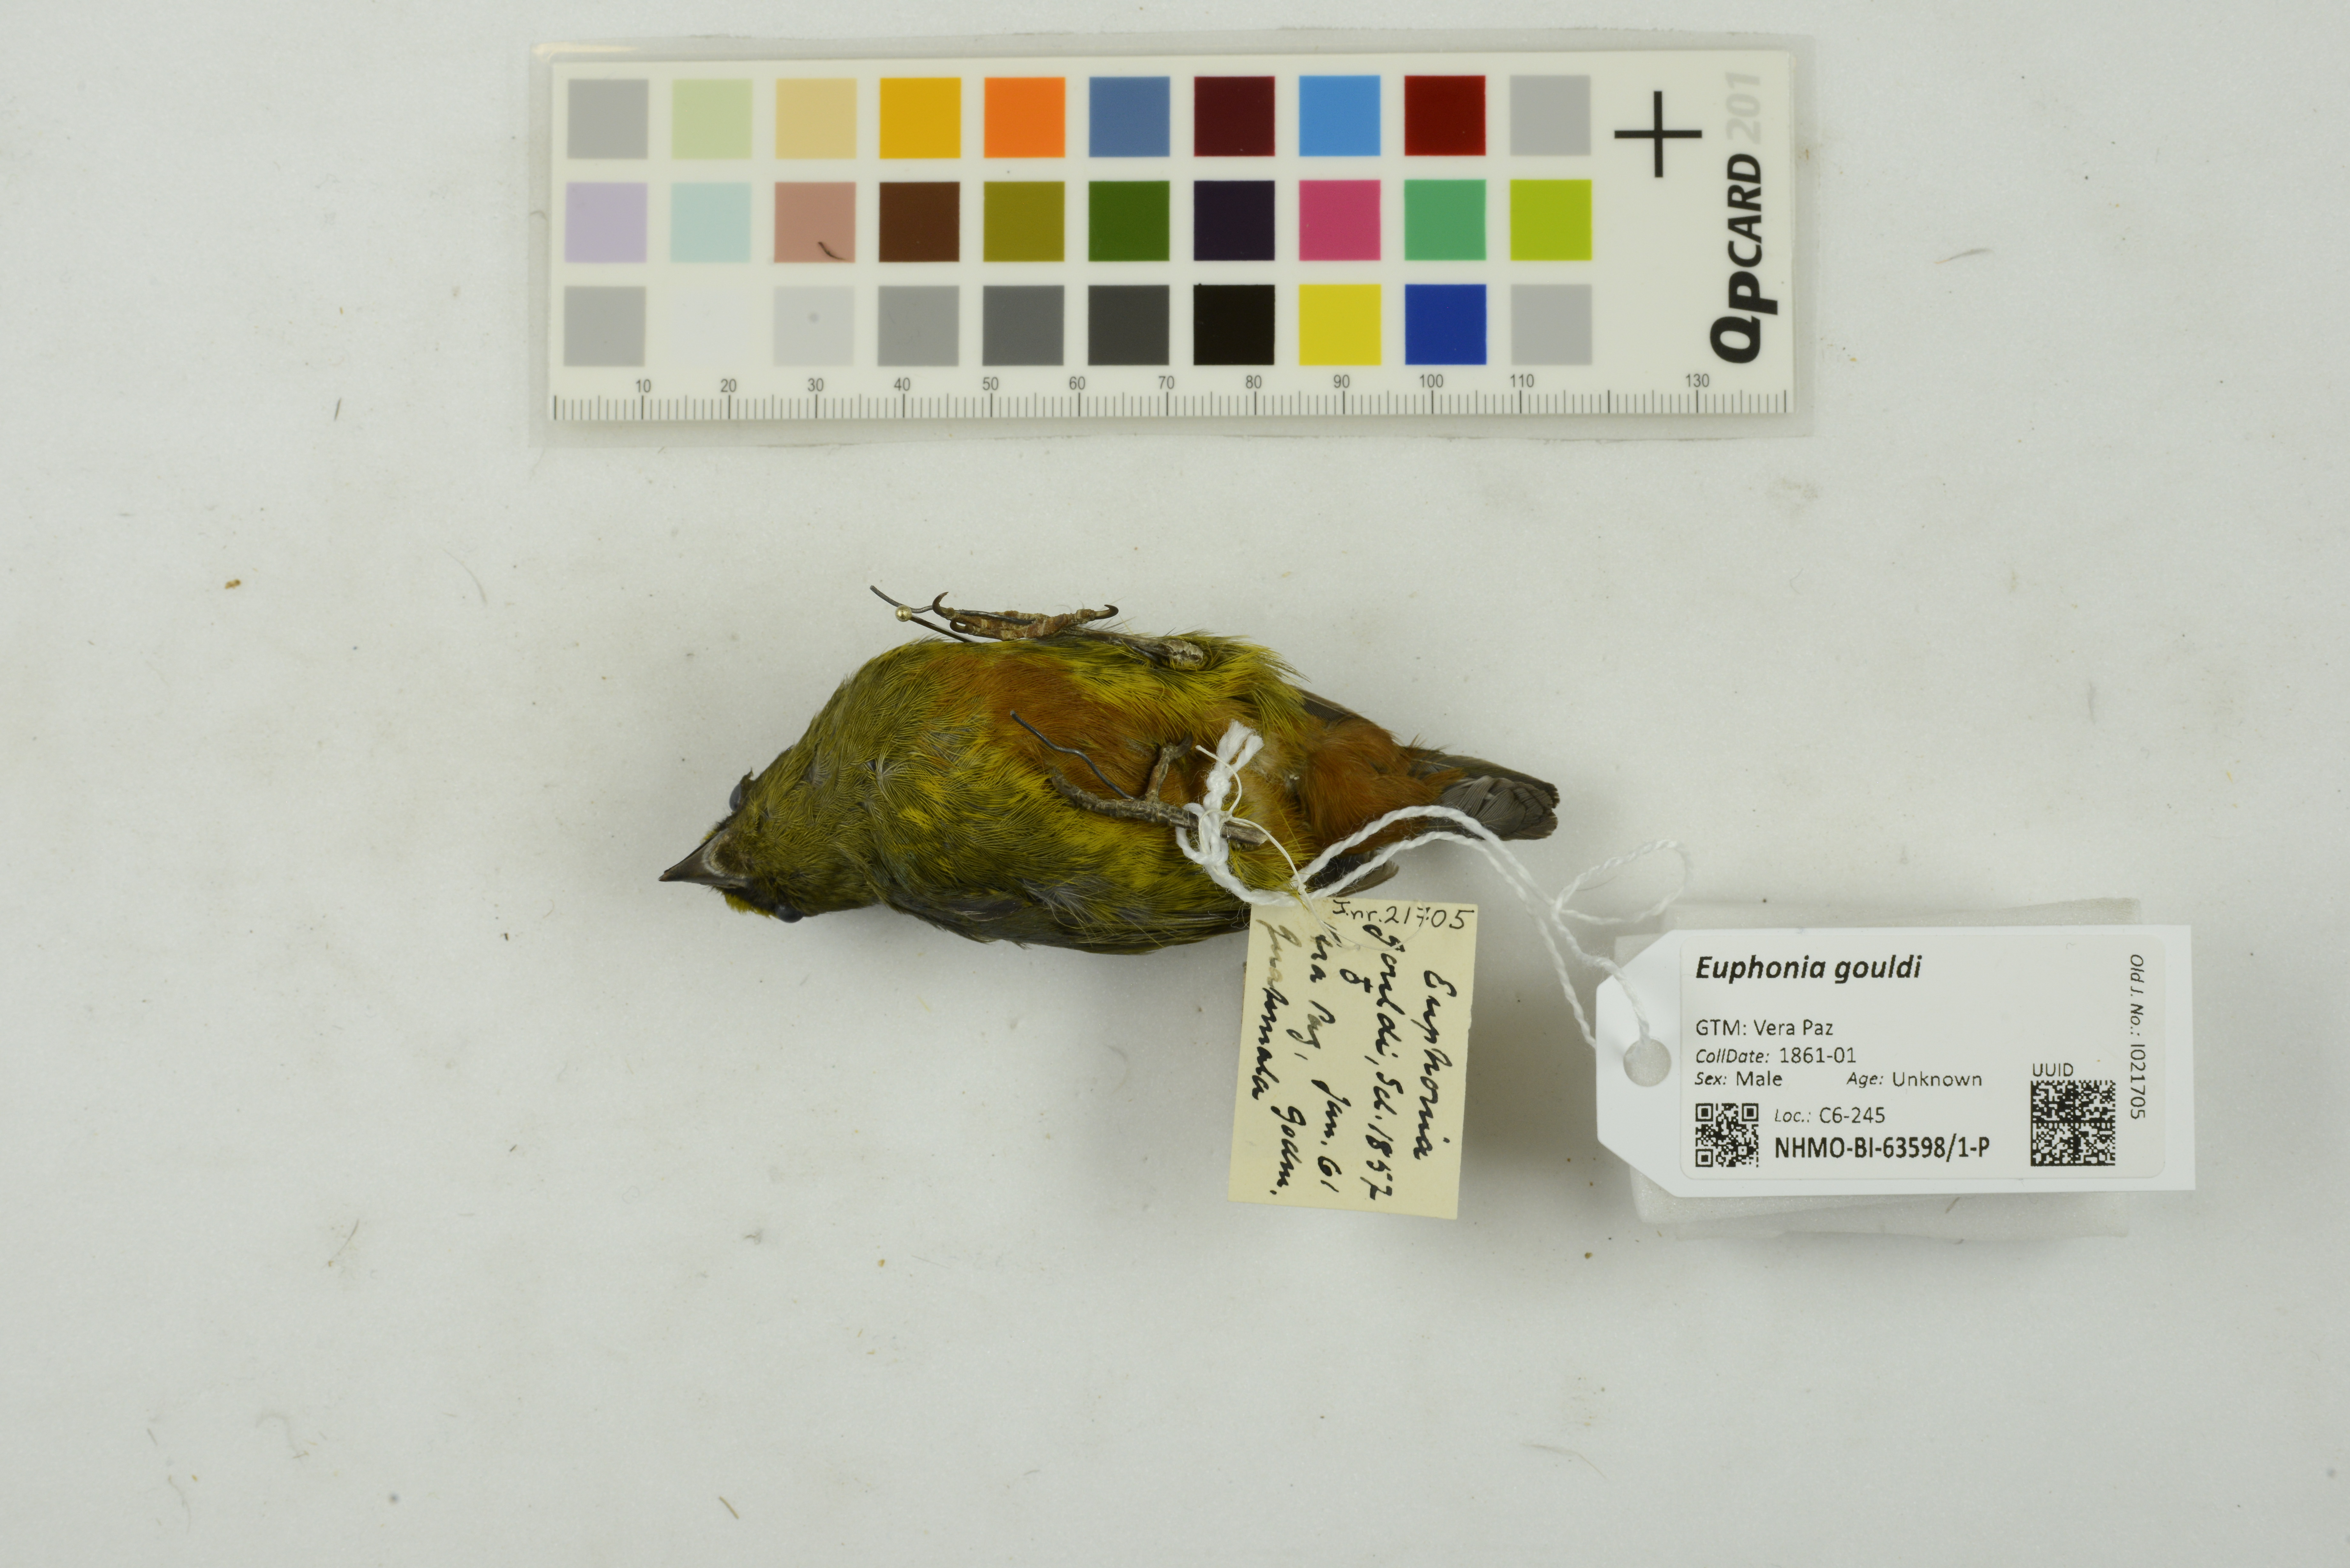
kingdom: Animalia
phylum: Chordata
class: Aves
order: Passeriformes
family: Fringillidae
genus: Euphonia
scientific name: Euphonia gouldi
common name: Olive-backed euphonia
